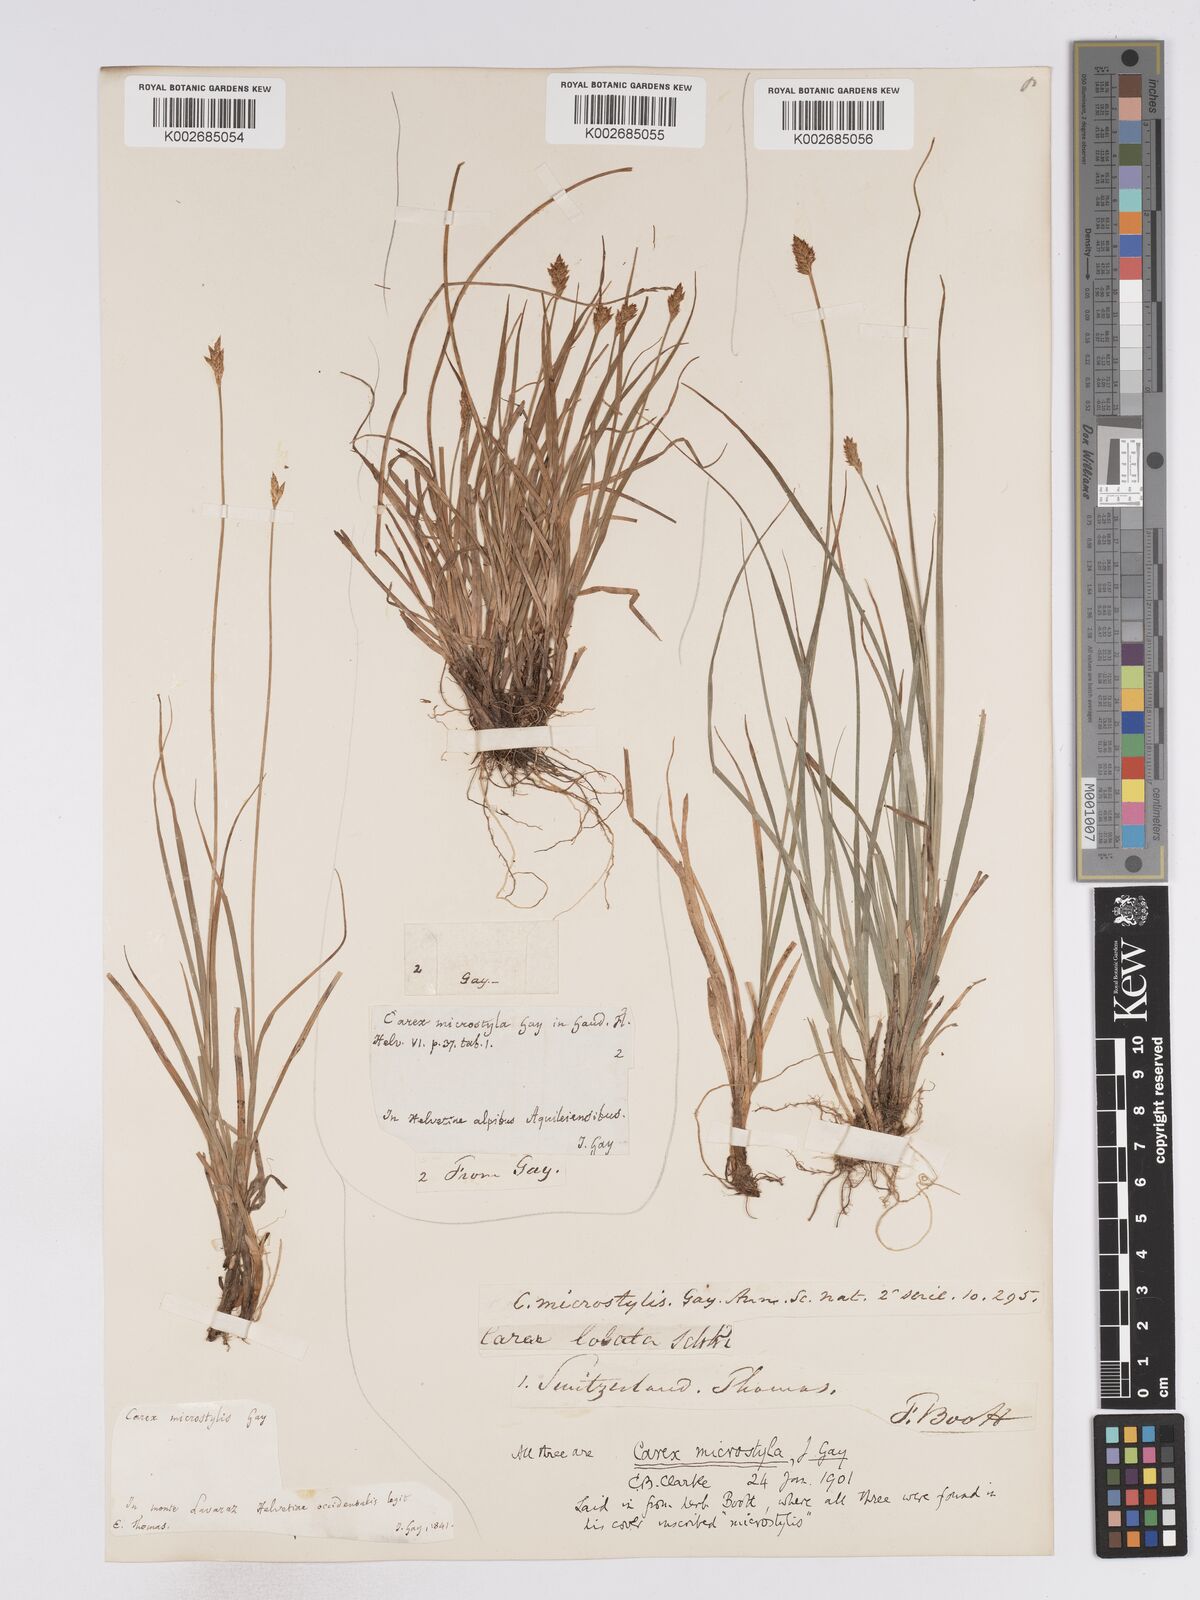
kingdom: Plantae
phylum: Tracheophyta
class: Liliopsida
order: Poales
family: Cyperaceae
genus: Carex
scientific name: Carex microstyla
